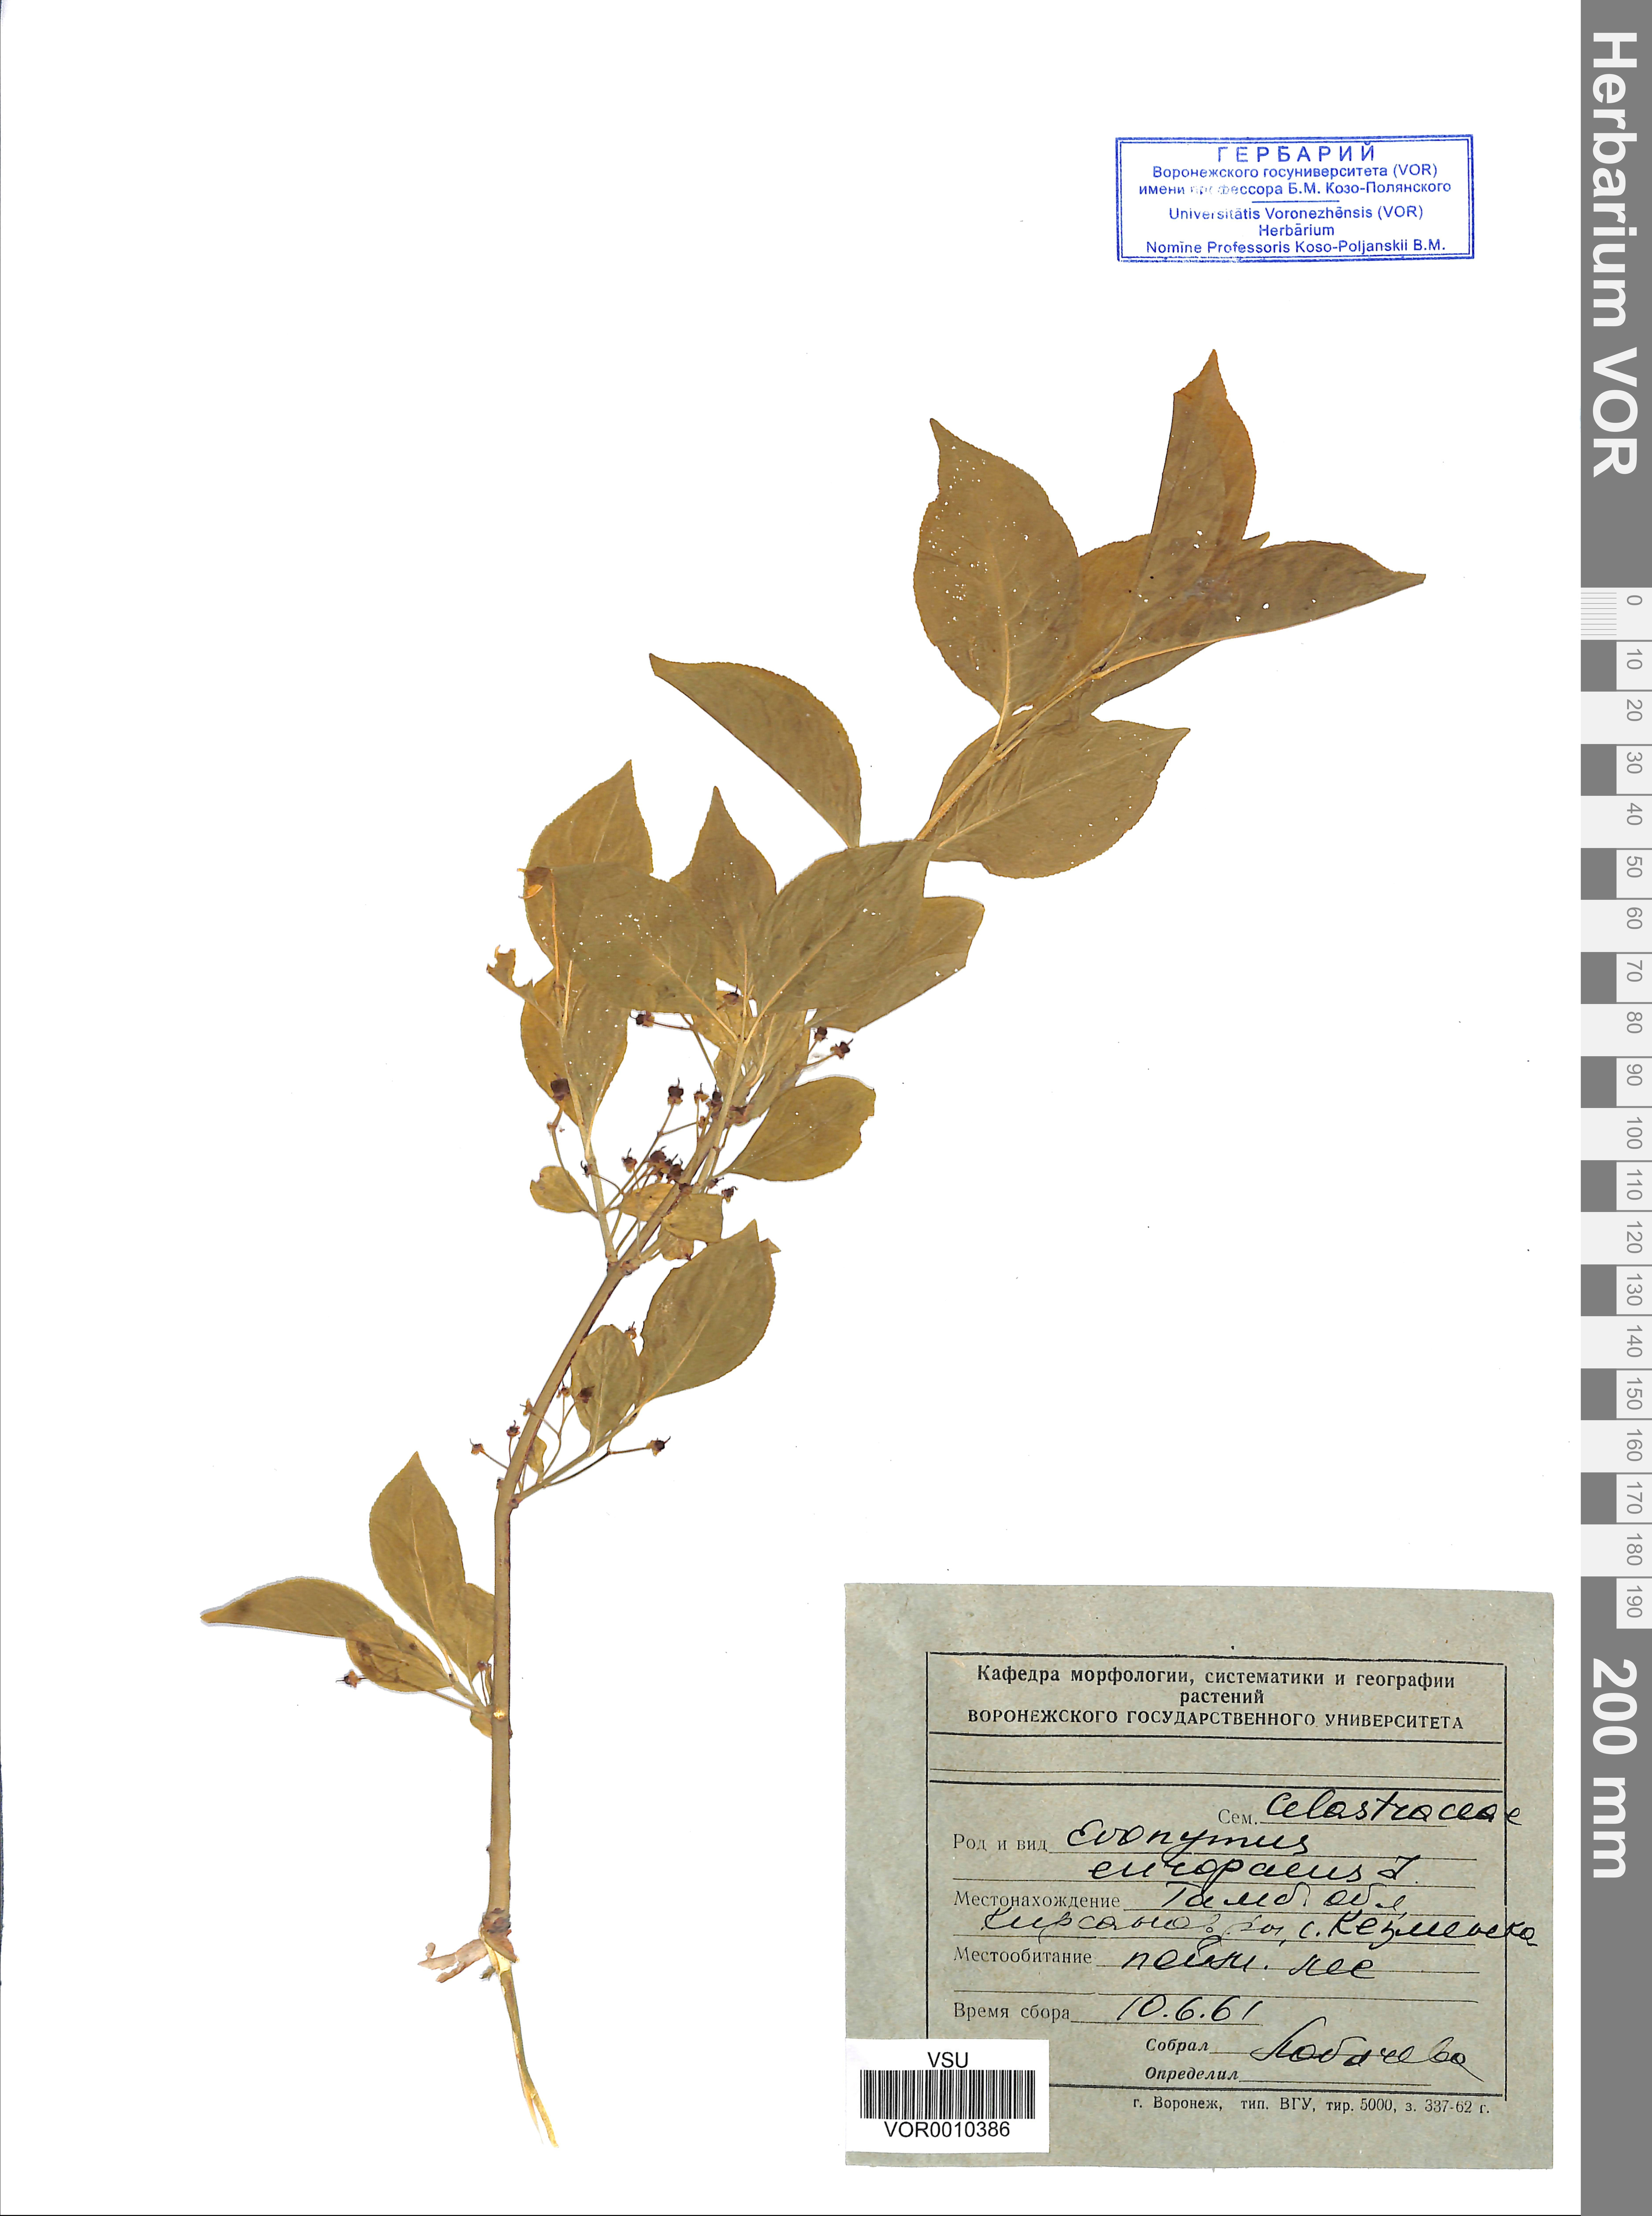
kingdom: Plantae
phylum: Tracheophyta
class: Magnoliopsida
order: Celastrales
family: Celastraceae
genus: Euonymus
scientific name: Euonymus europaeus
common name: Spindle
